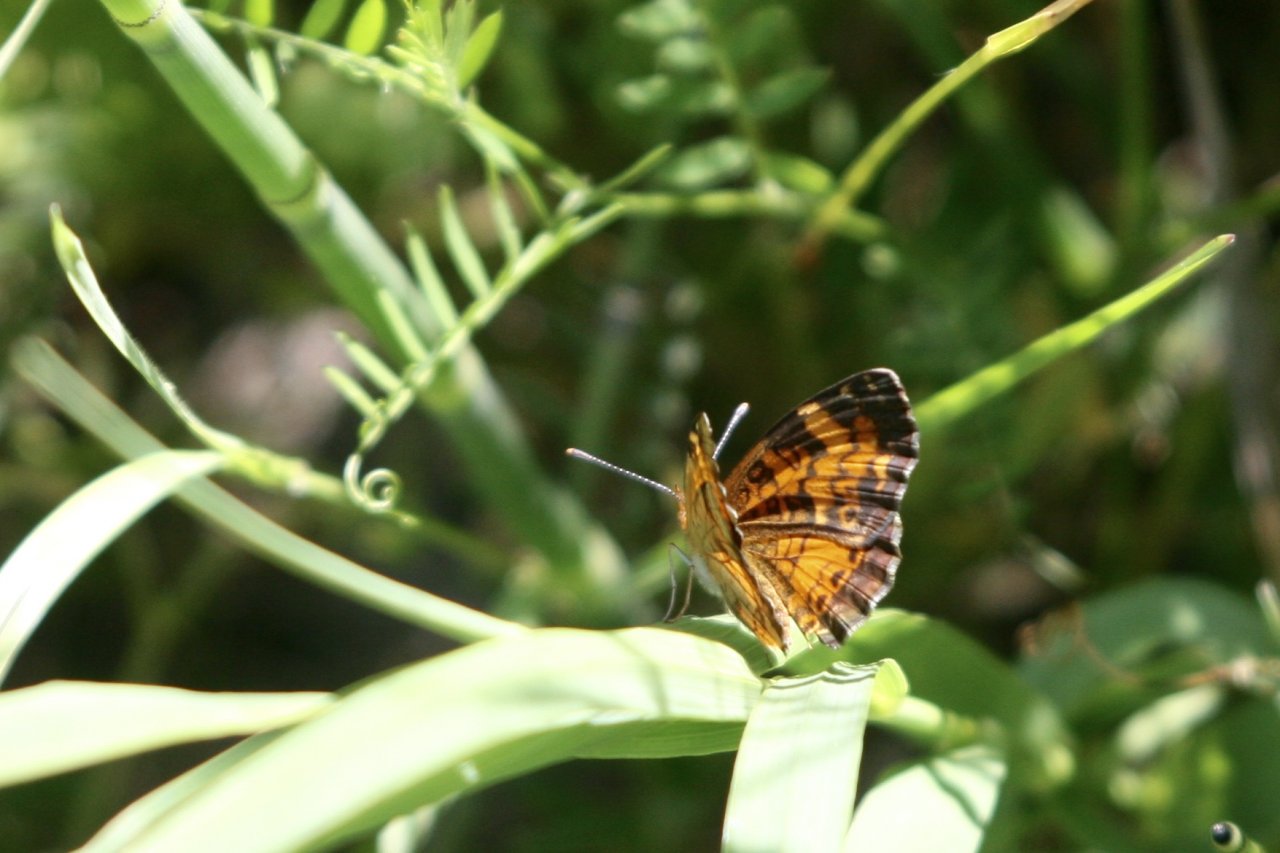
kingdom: Animalia
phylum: Arthropoda
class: Insecta
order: Lepidoptera
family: Nymphalidae
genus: Phyciodes
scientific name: Phyciodes tharos
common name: Northern Crescent
